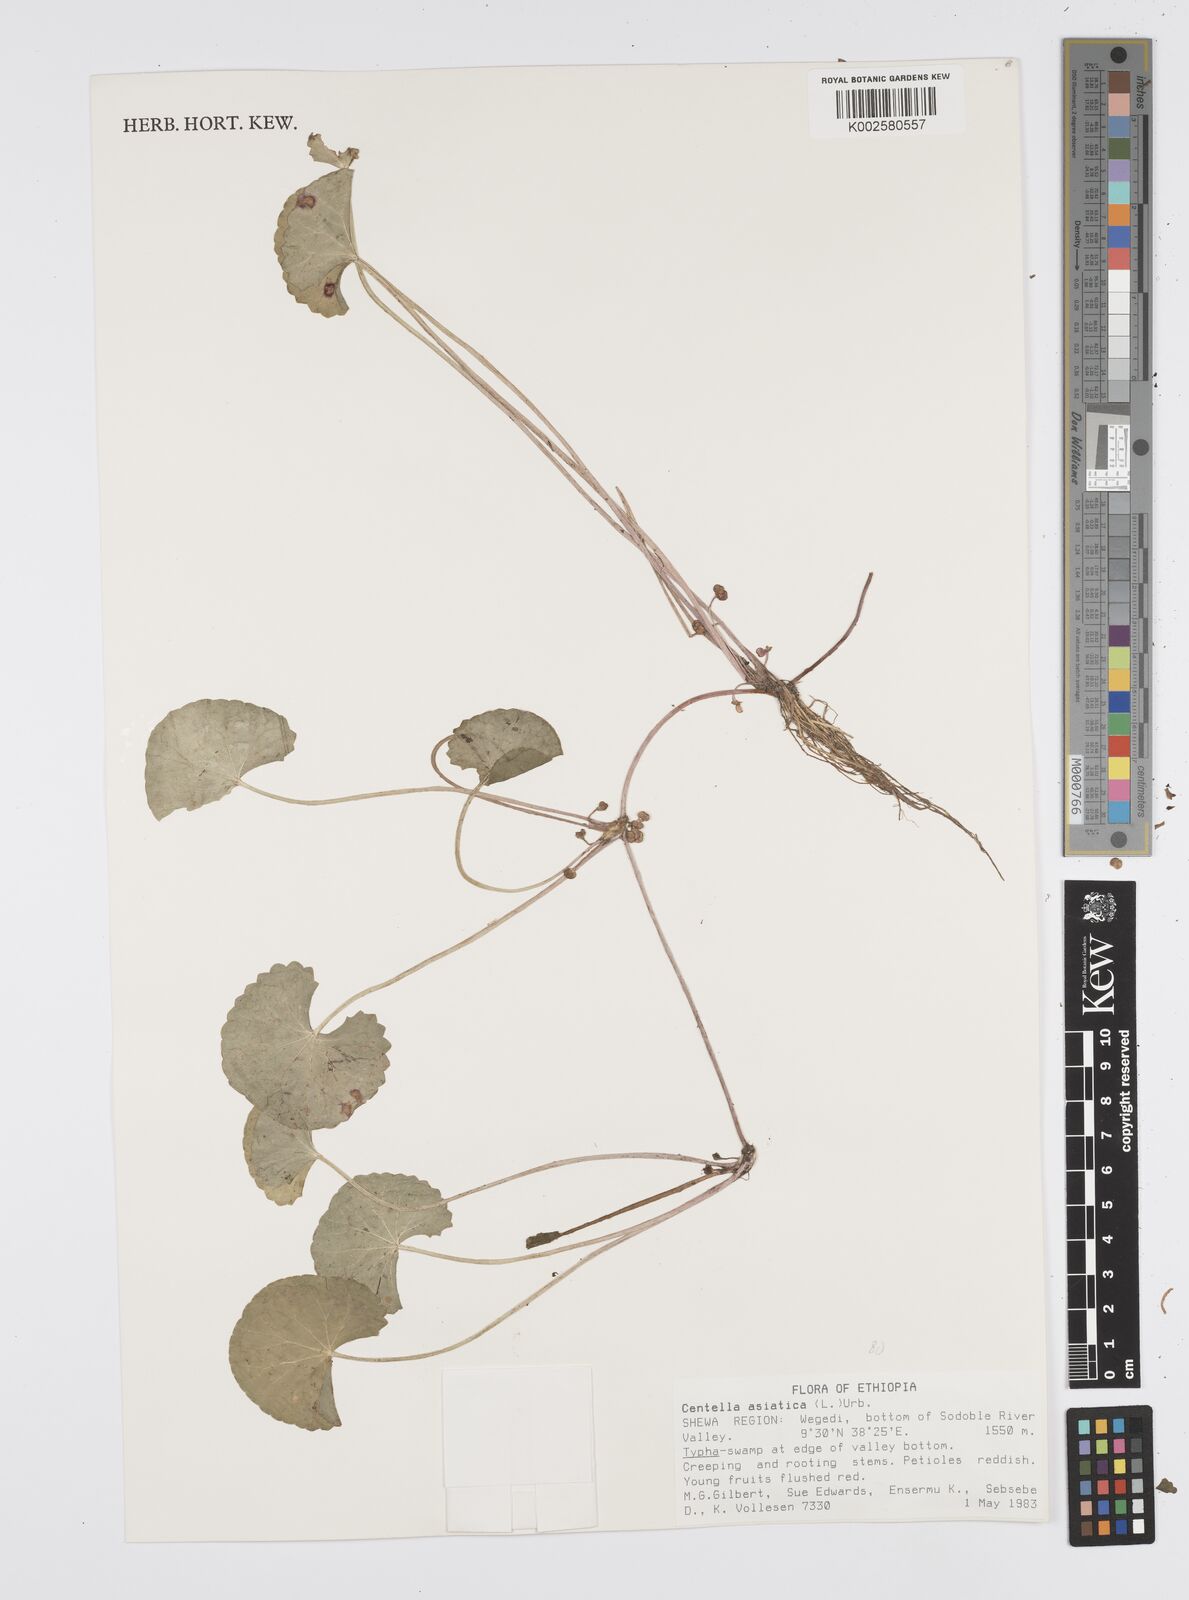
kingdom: Plantae
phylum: Tracheophyta
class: Magnoliopsida
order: Apiales
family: Apiaceae
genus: Centella
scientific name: Centella asiatica
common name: Spadeleaf
